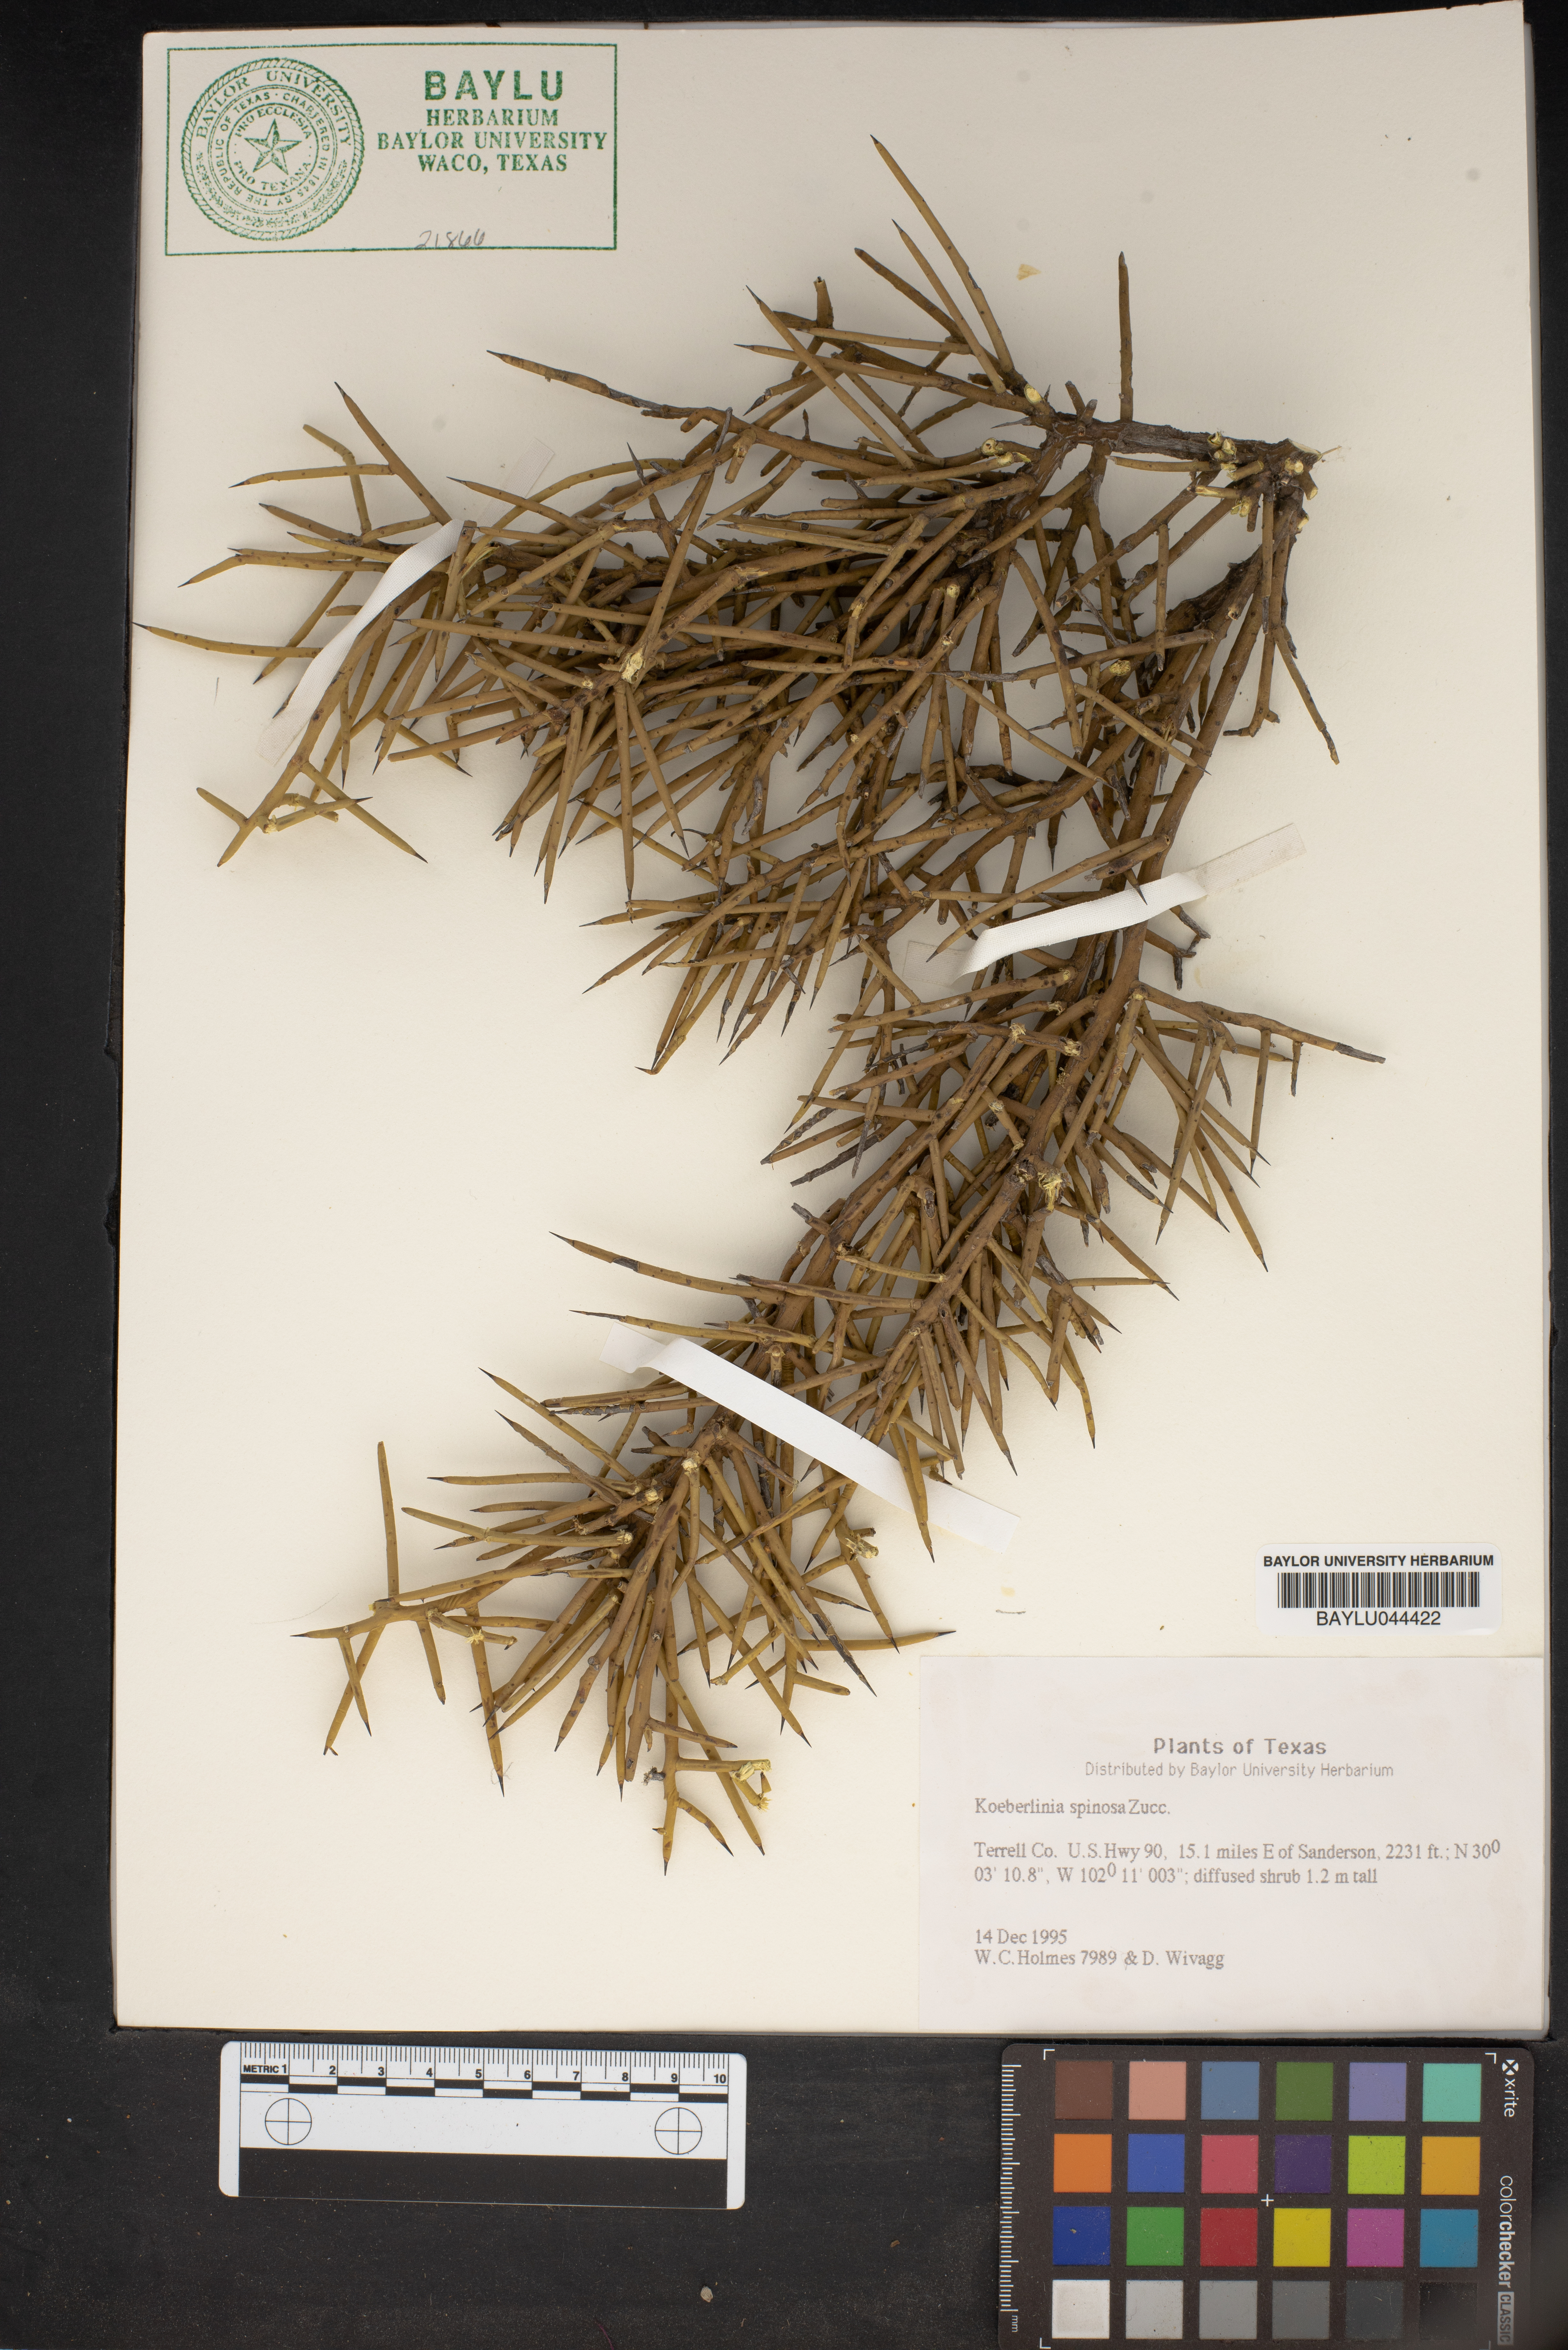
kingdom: Plantae
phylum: Tracheophyta
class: Magnoliopsida
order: Brassicales
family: Koeberliniaceae
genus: Koeberlinia
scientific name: Koeberlinia spinosa
